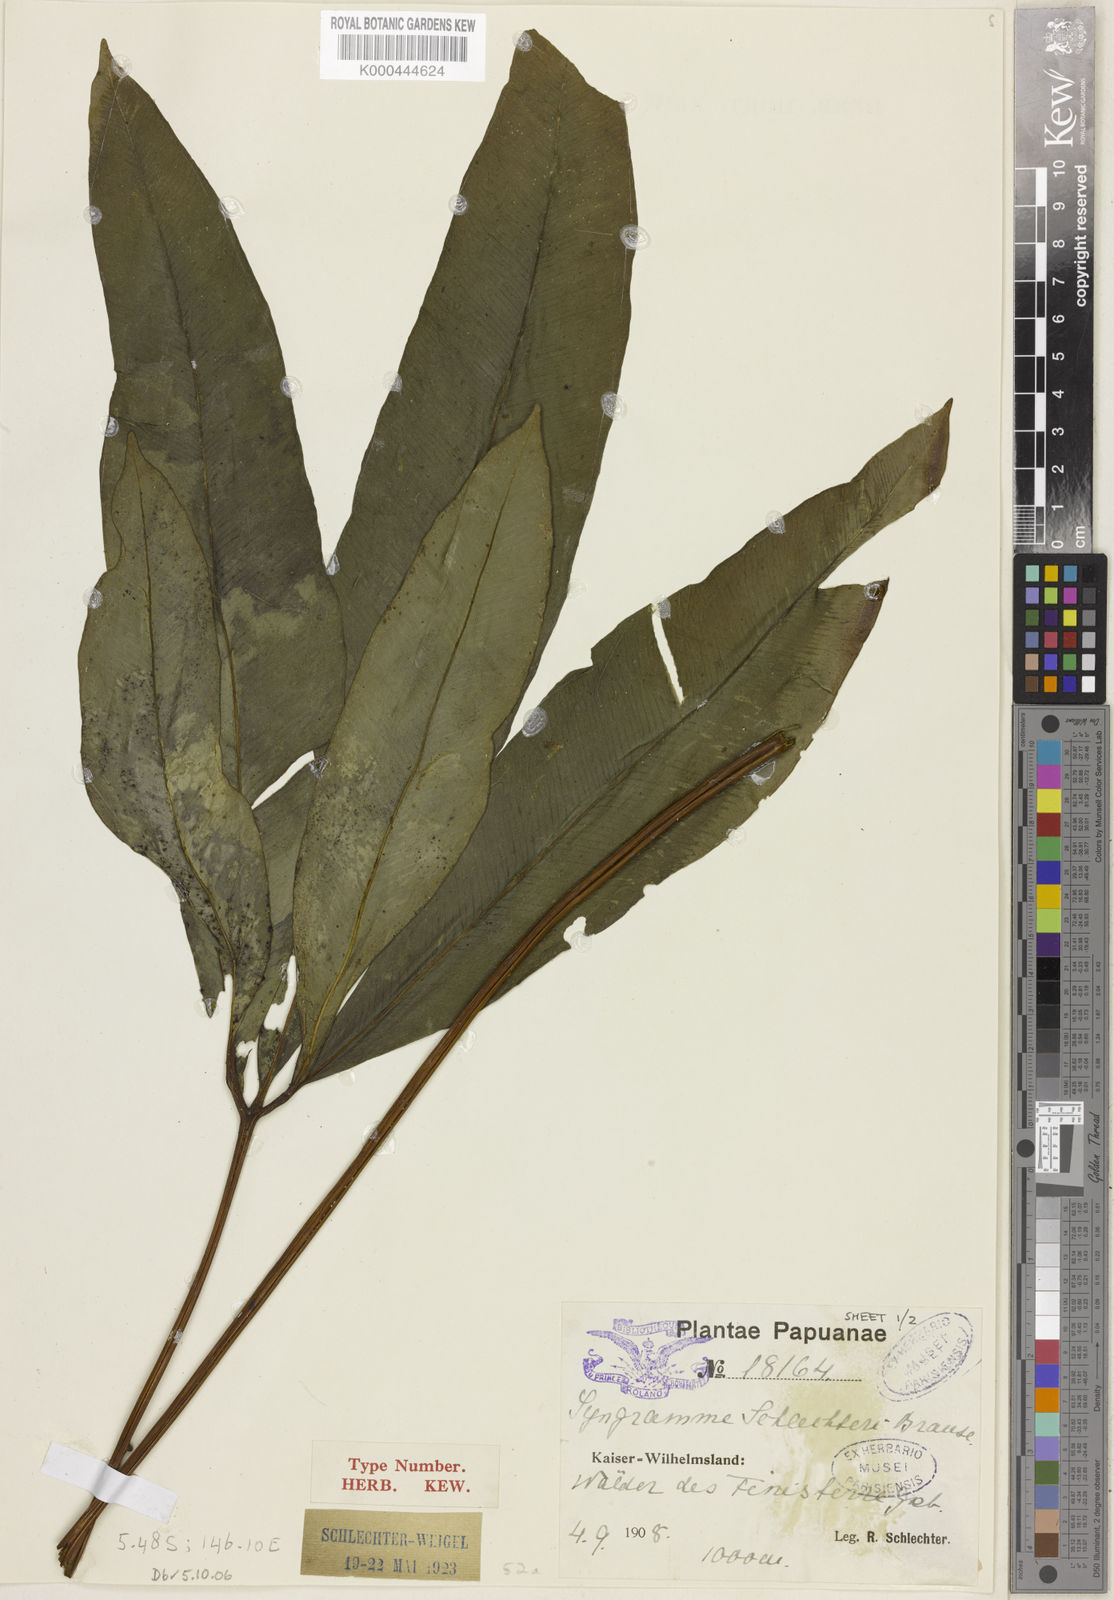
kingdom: Plantae
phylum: Tracheophyta
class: Polypodiopsida
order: Polypodiales
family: Pteridaceae
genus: Syngramma
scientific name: Syngramma quinata
